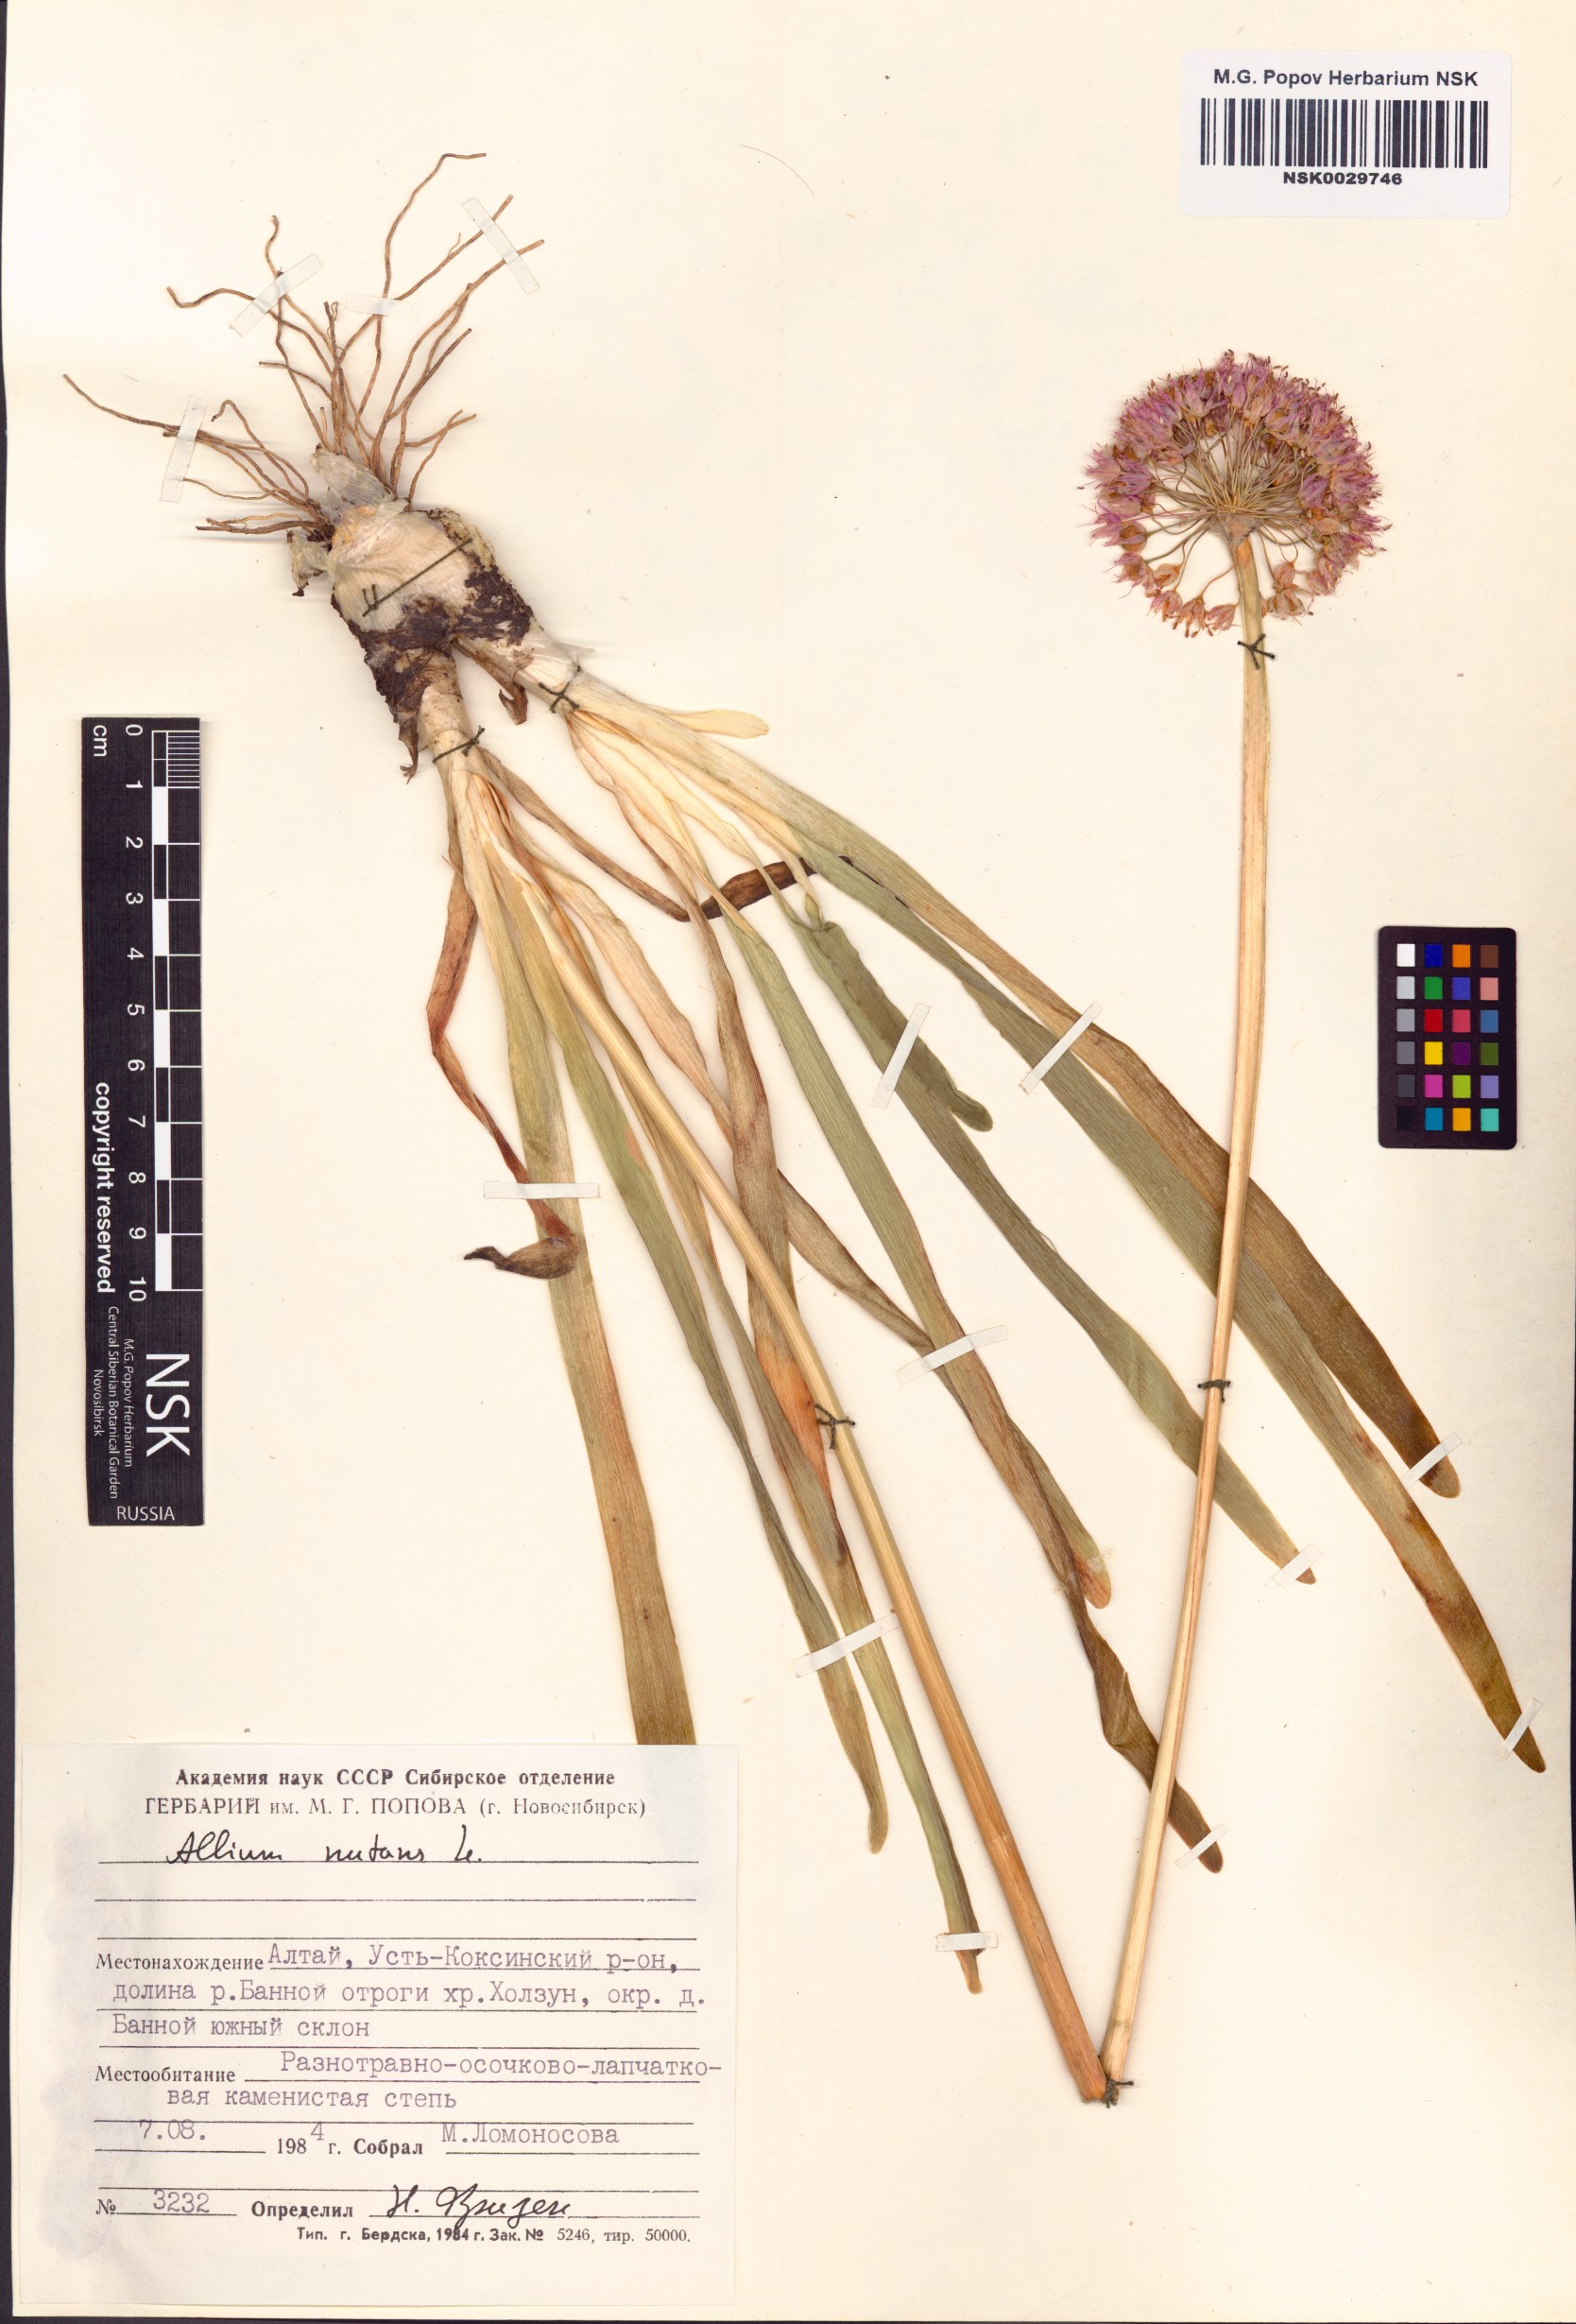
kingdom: Plantae
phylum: Tracheophyta
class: Liliopsida
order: Asparagales
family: Amaryllidaceae
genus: Allium
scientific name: Allium nutans
